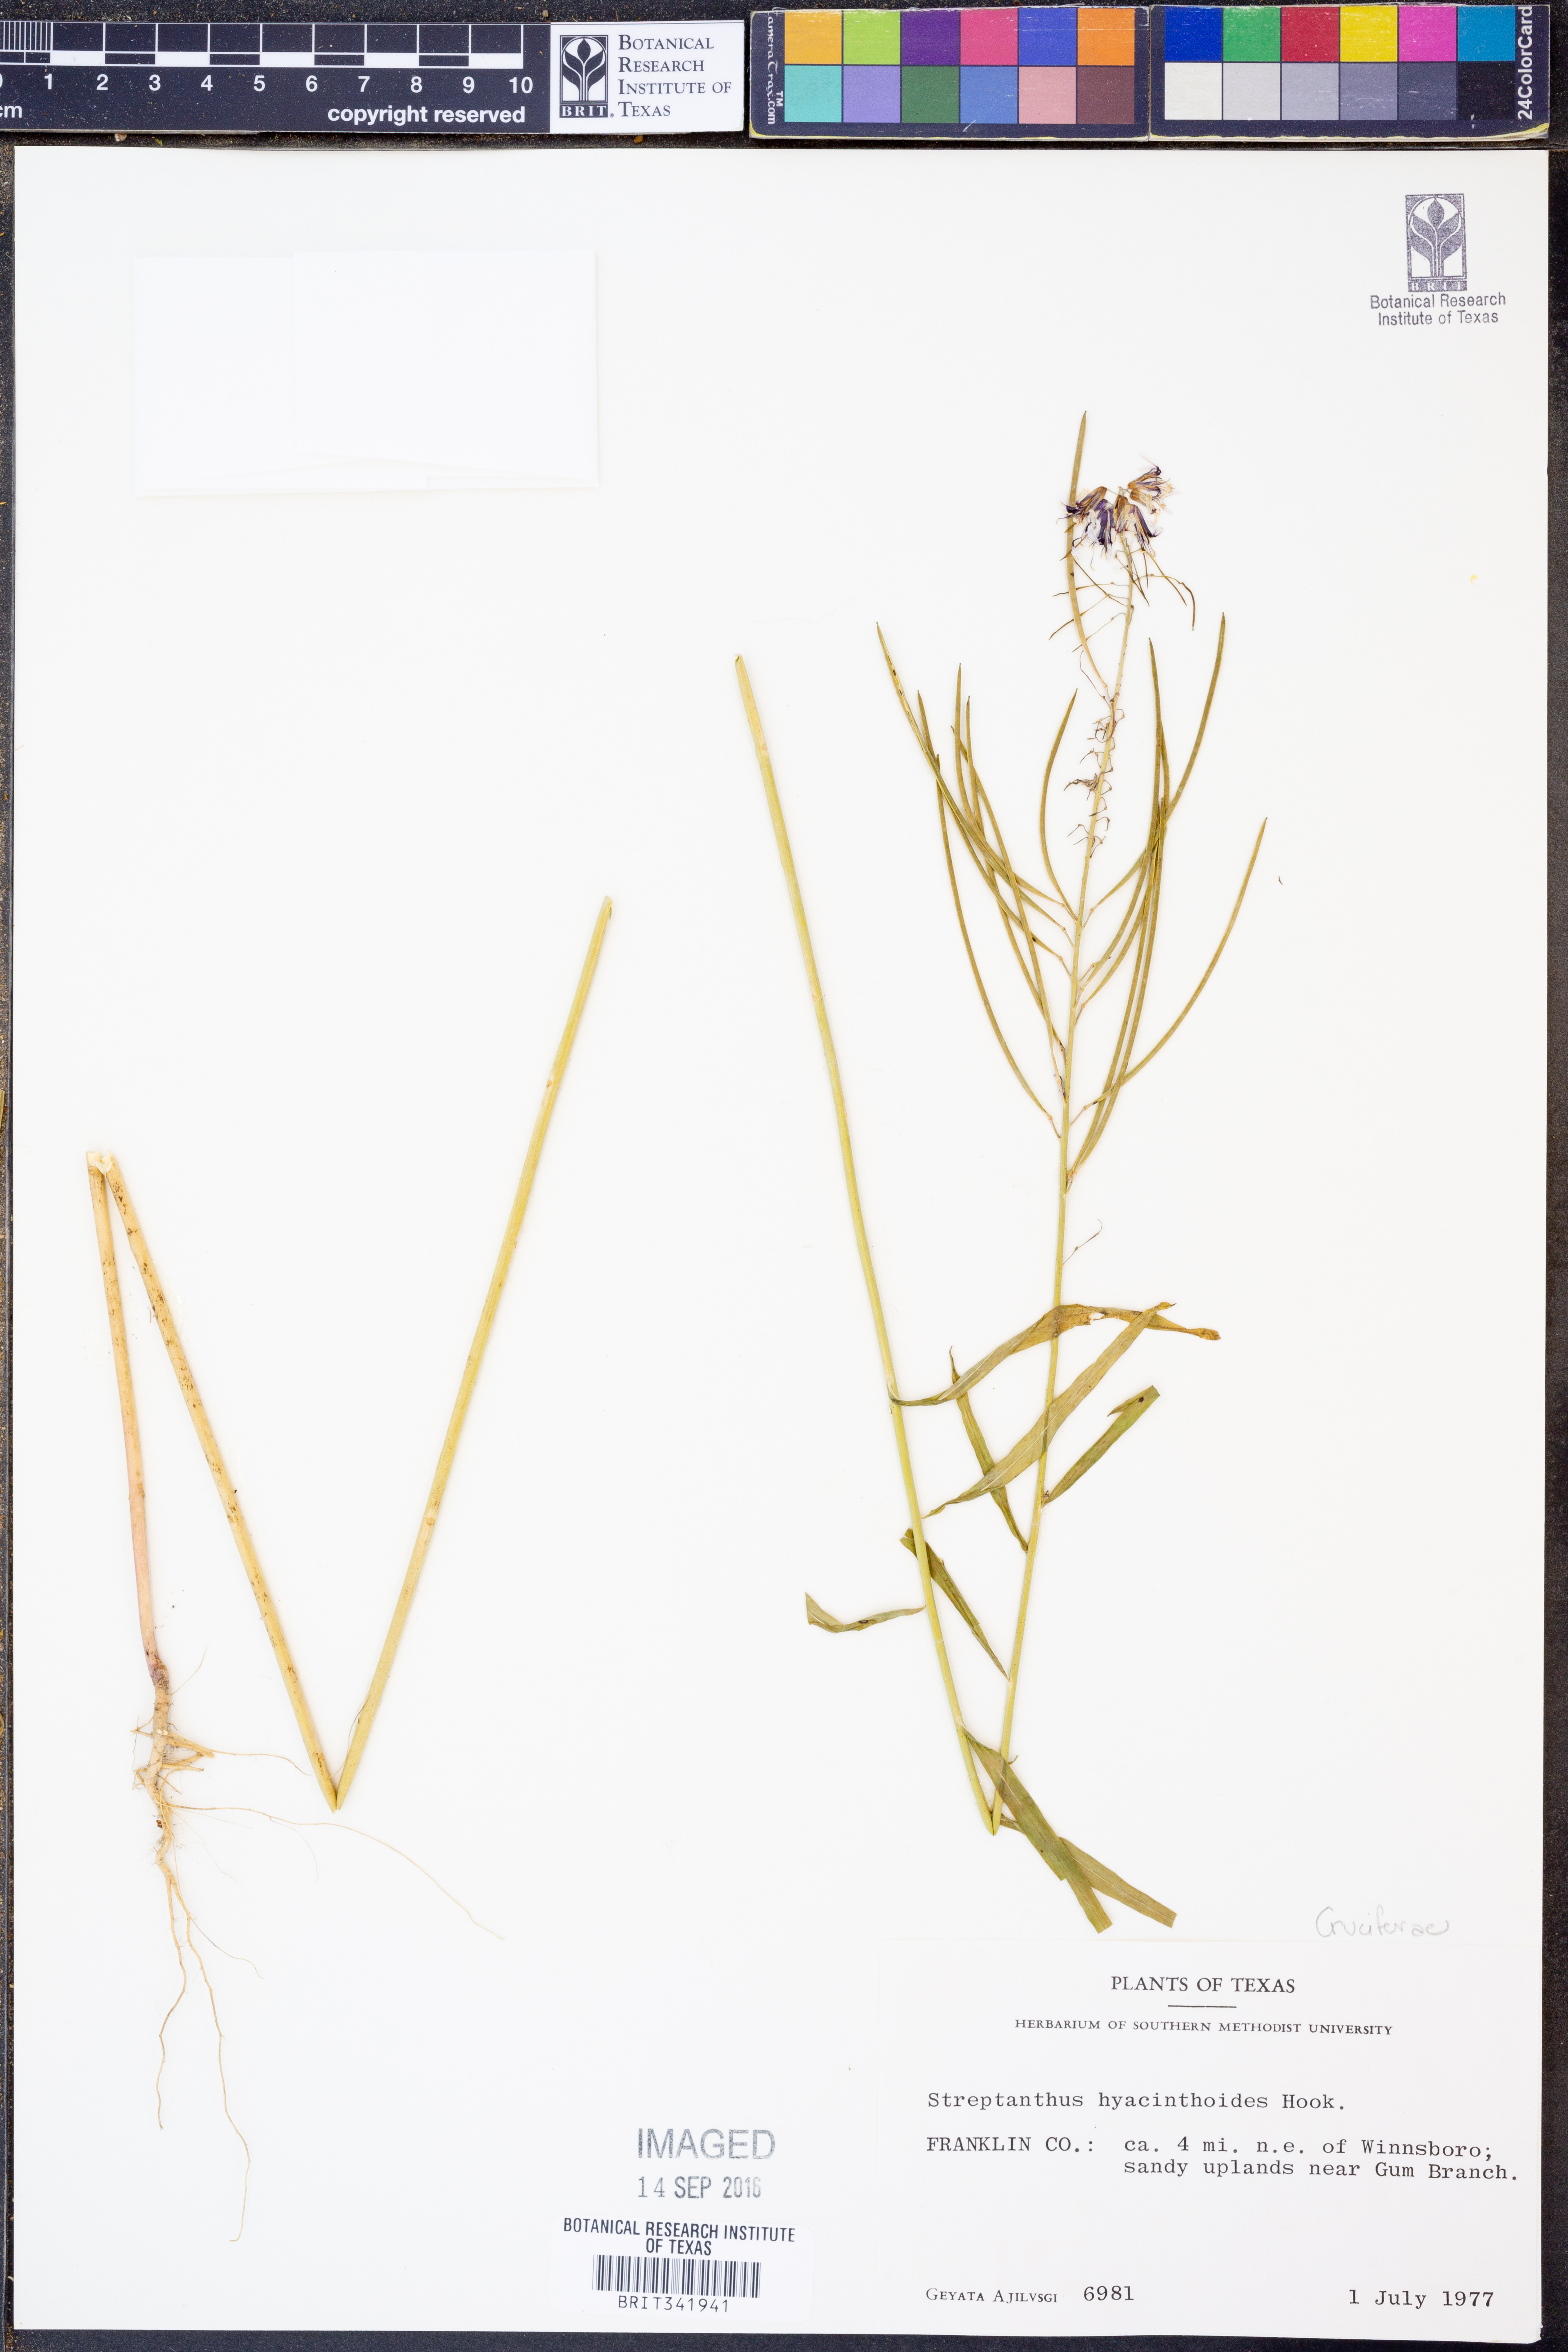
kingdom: Plantae
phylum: Tracheophyta
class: Magnoliopsida
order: Brassicales
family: Brassicaceae
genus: Streptanthus
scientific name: Streptanthus hyacinthoides
